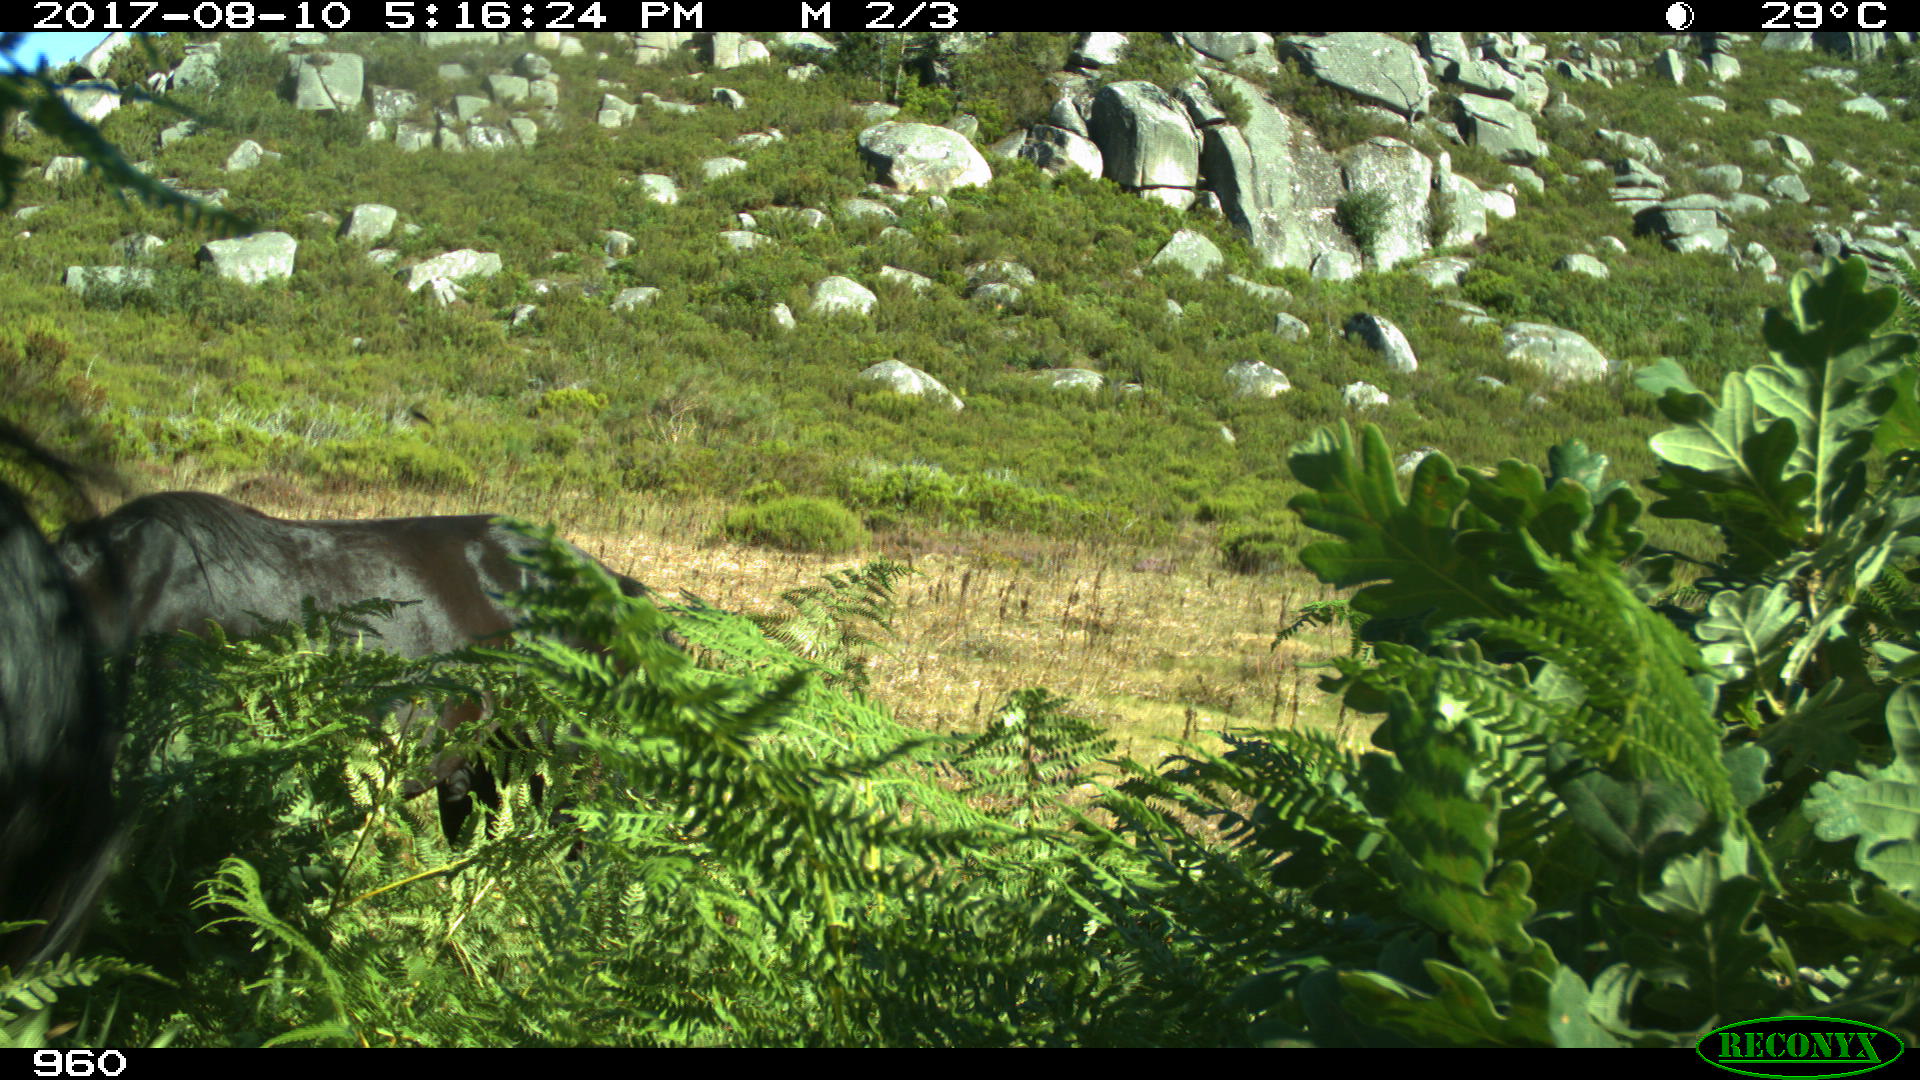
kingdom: Animalia
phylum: Chordata
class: Mammalia
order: Perissodactyla
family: Equidae
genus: Equus
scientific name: Equus caballus
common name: Horse
